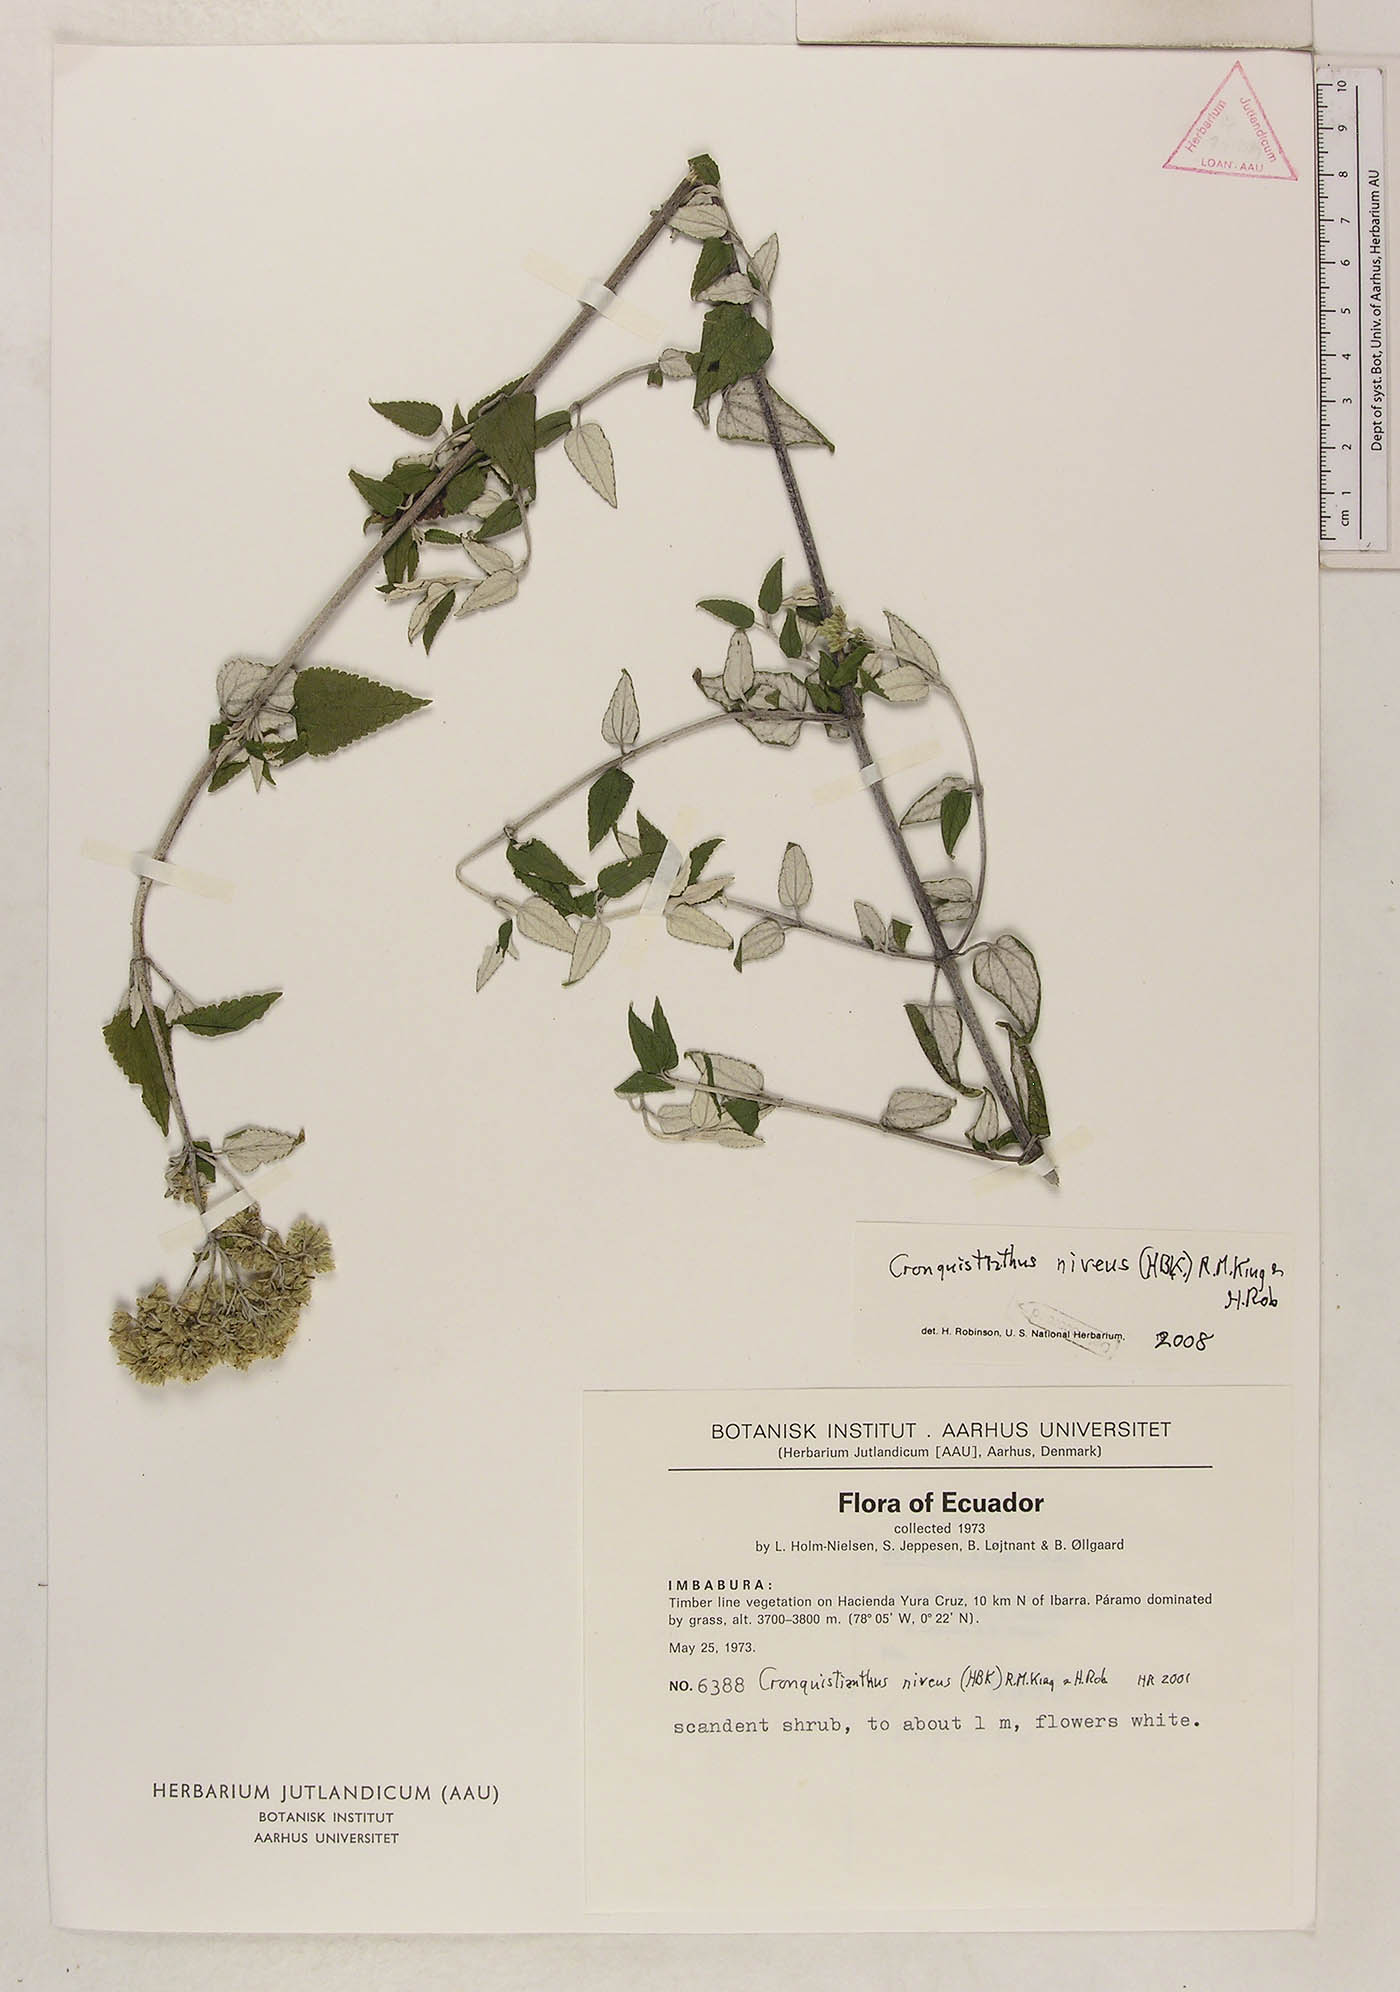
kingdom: Plantae
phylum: Tracheophyta
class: Magnoliopsida
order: Asterales
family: Asteraceae
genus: Cronquistianthus
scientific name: Cronquistianthus niveus
